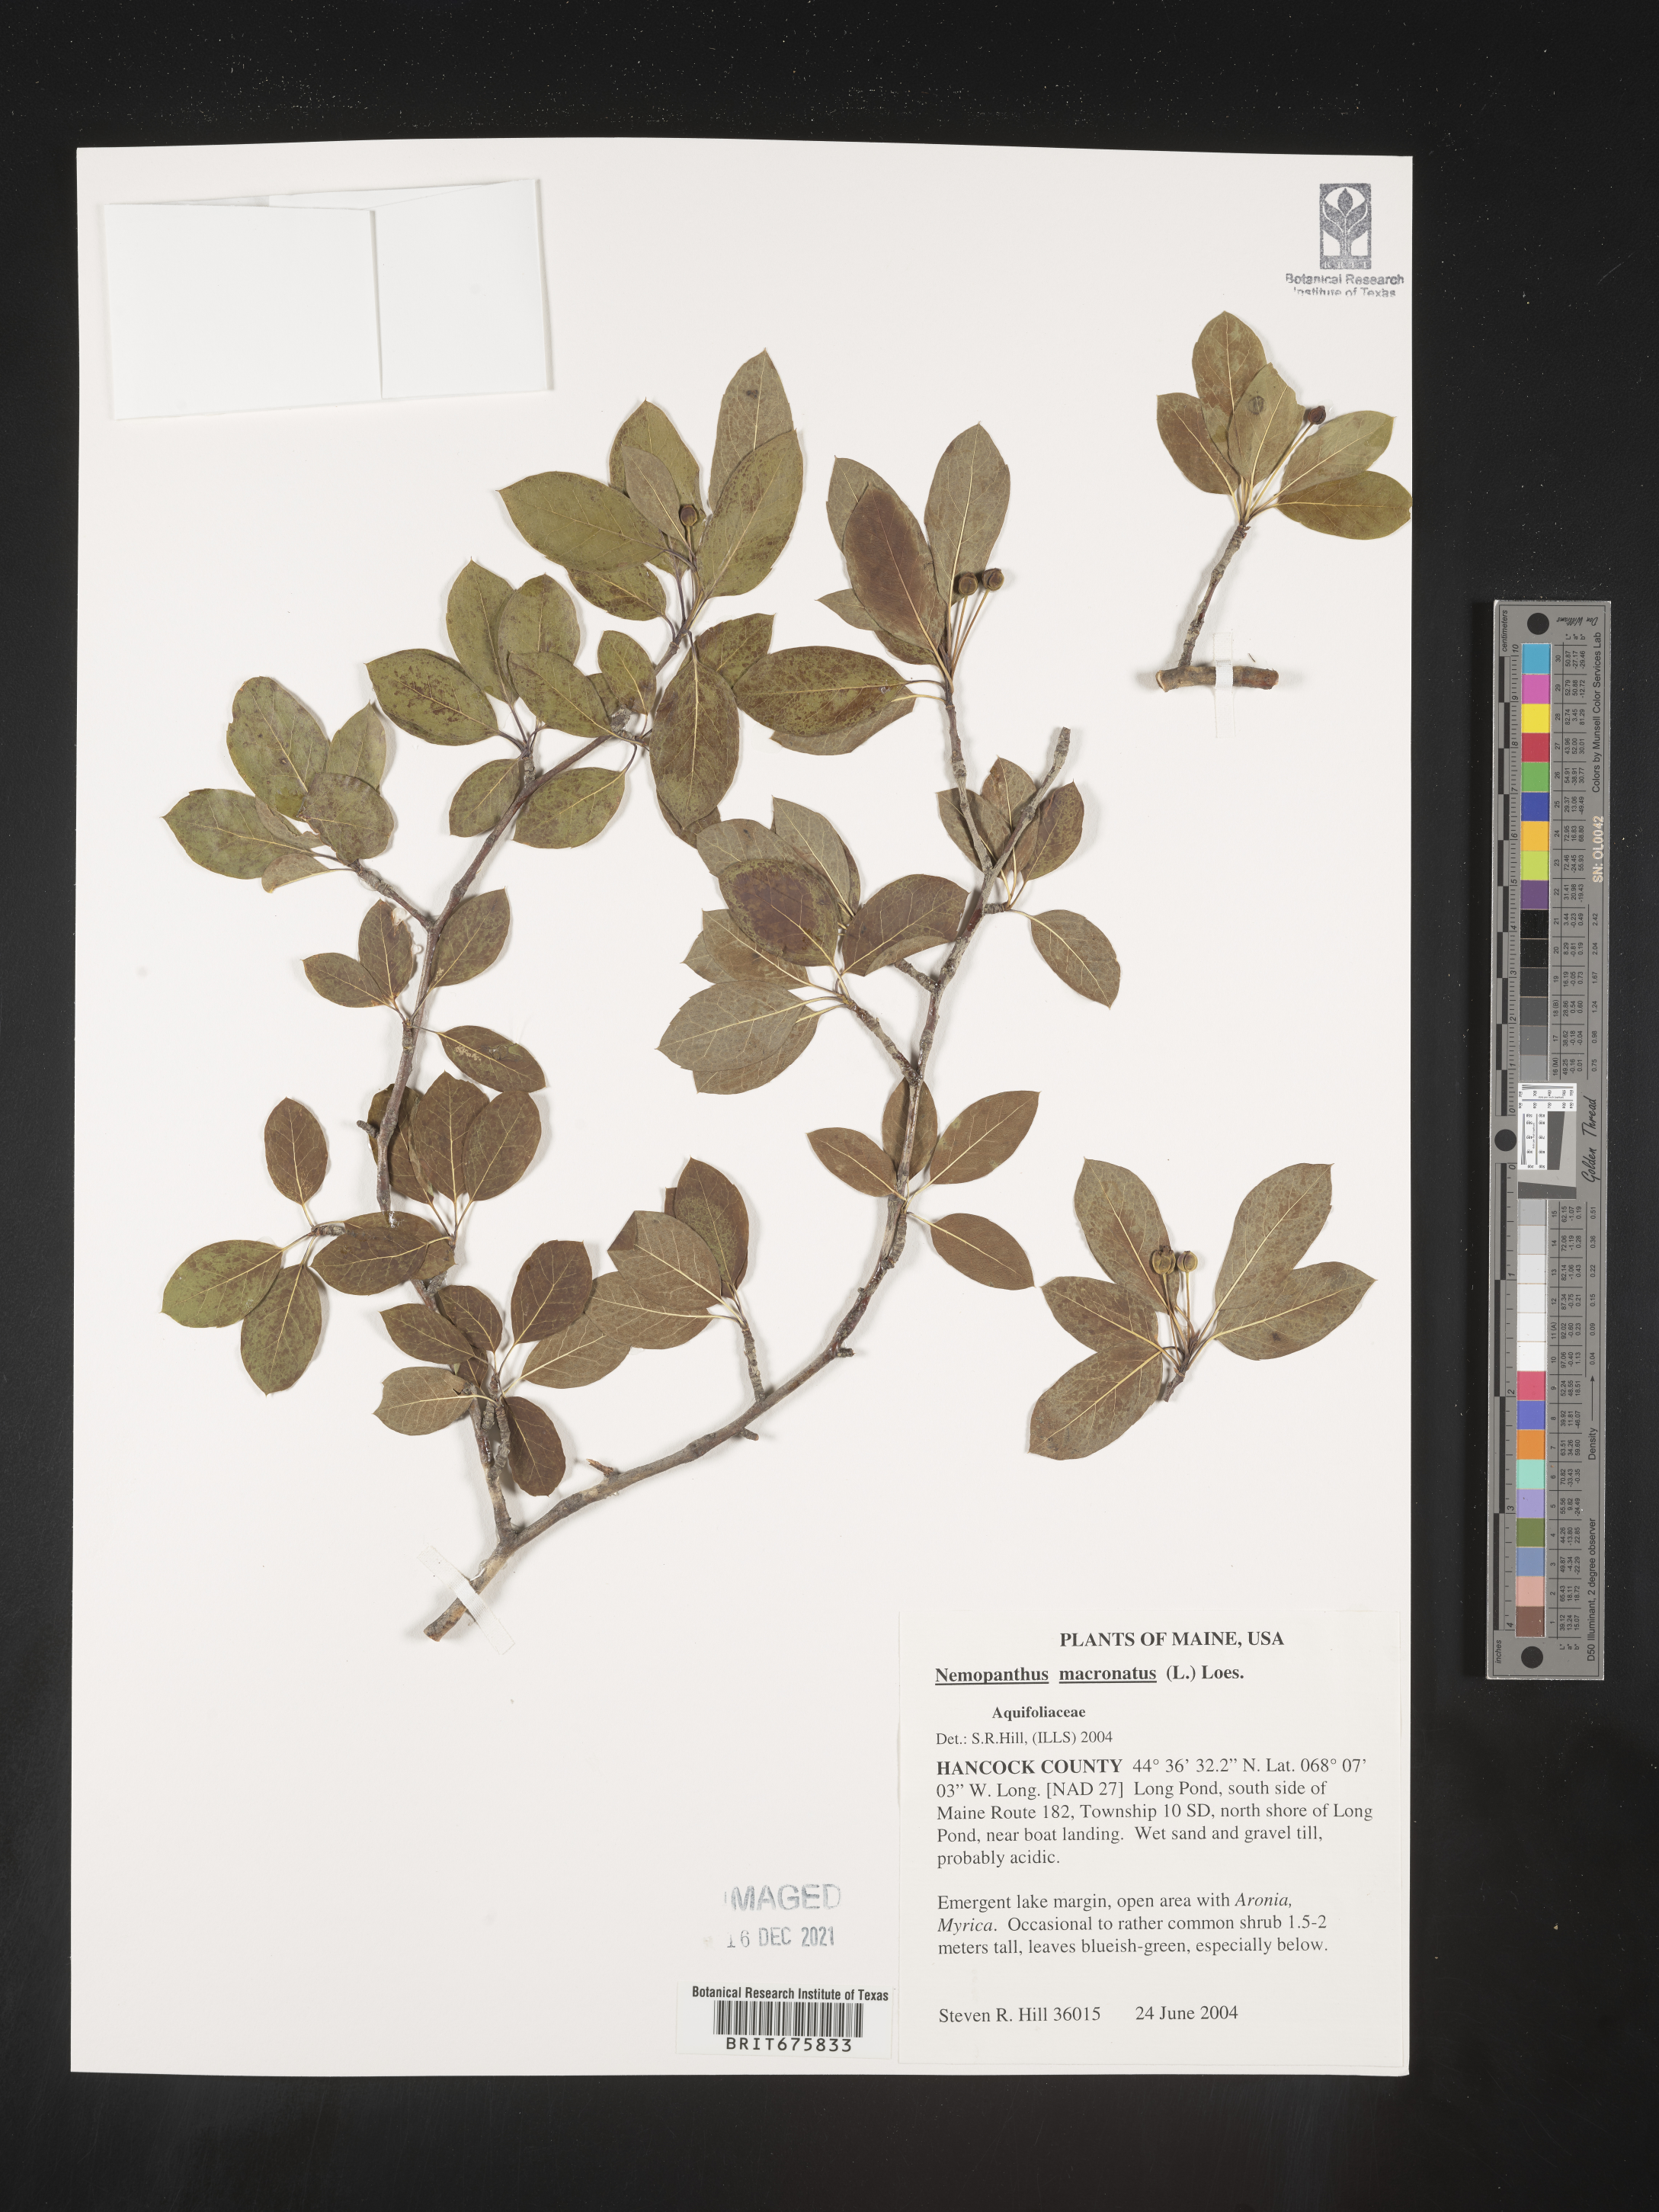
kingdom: Plantae
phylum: Tracheophyta
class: Magnoliopsida
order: Aquifoliales
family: Aquifoliaceae
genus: Ilex
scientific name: Ilex mucronata
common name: Catberry
